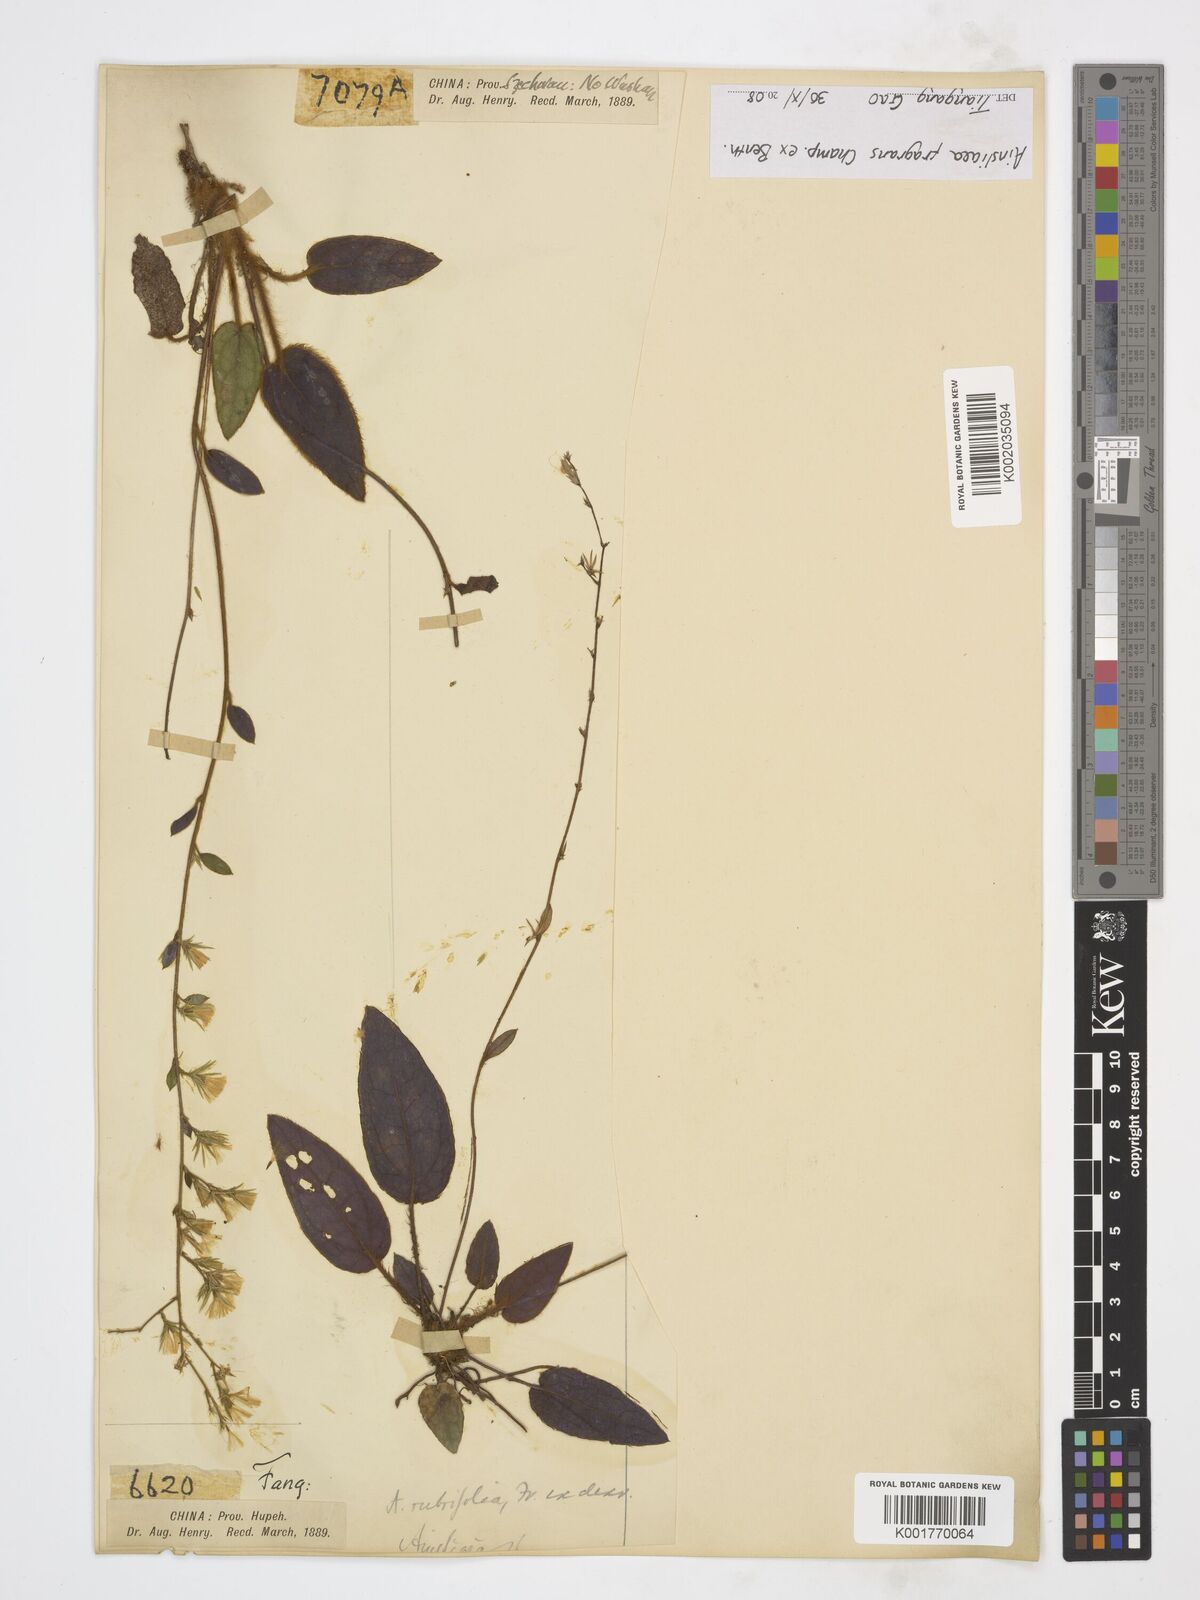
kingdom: Plantae
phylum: Tracheophyta
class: Magnoliopsida
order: Asterales
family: Asteraceae
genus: Ainsliaea
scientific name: Ainsliaea fragrans
